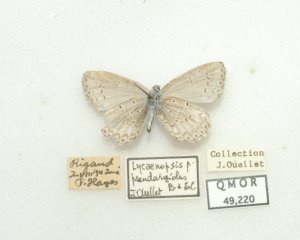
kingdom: Animalia
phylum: Arthropoda
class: Insecta
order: Lepidoptera
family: Lycaenidae
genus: Cyaniris
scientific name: Cyaniris neglecta
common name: Summer Azure
